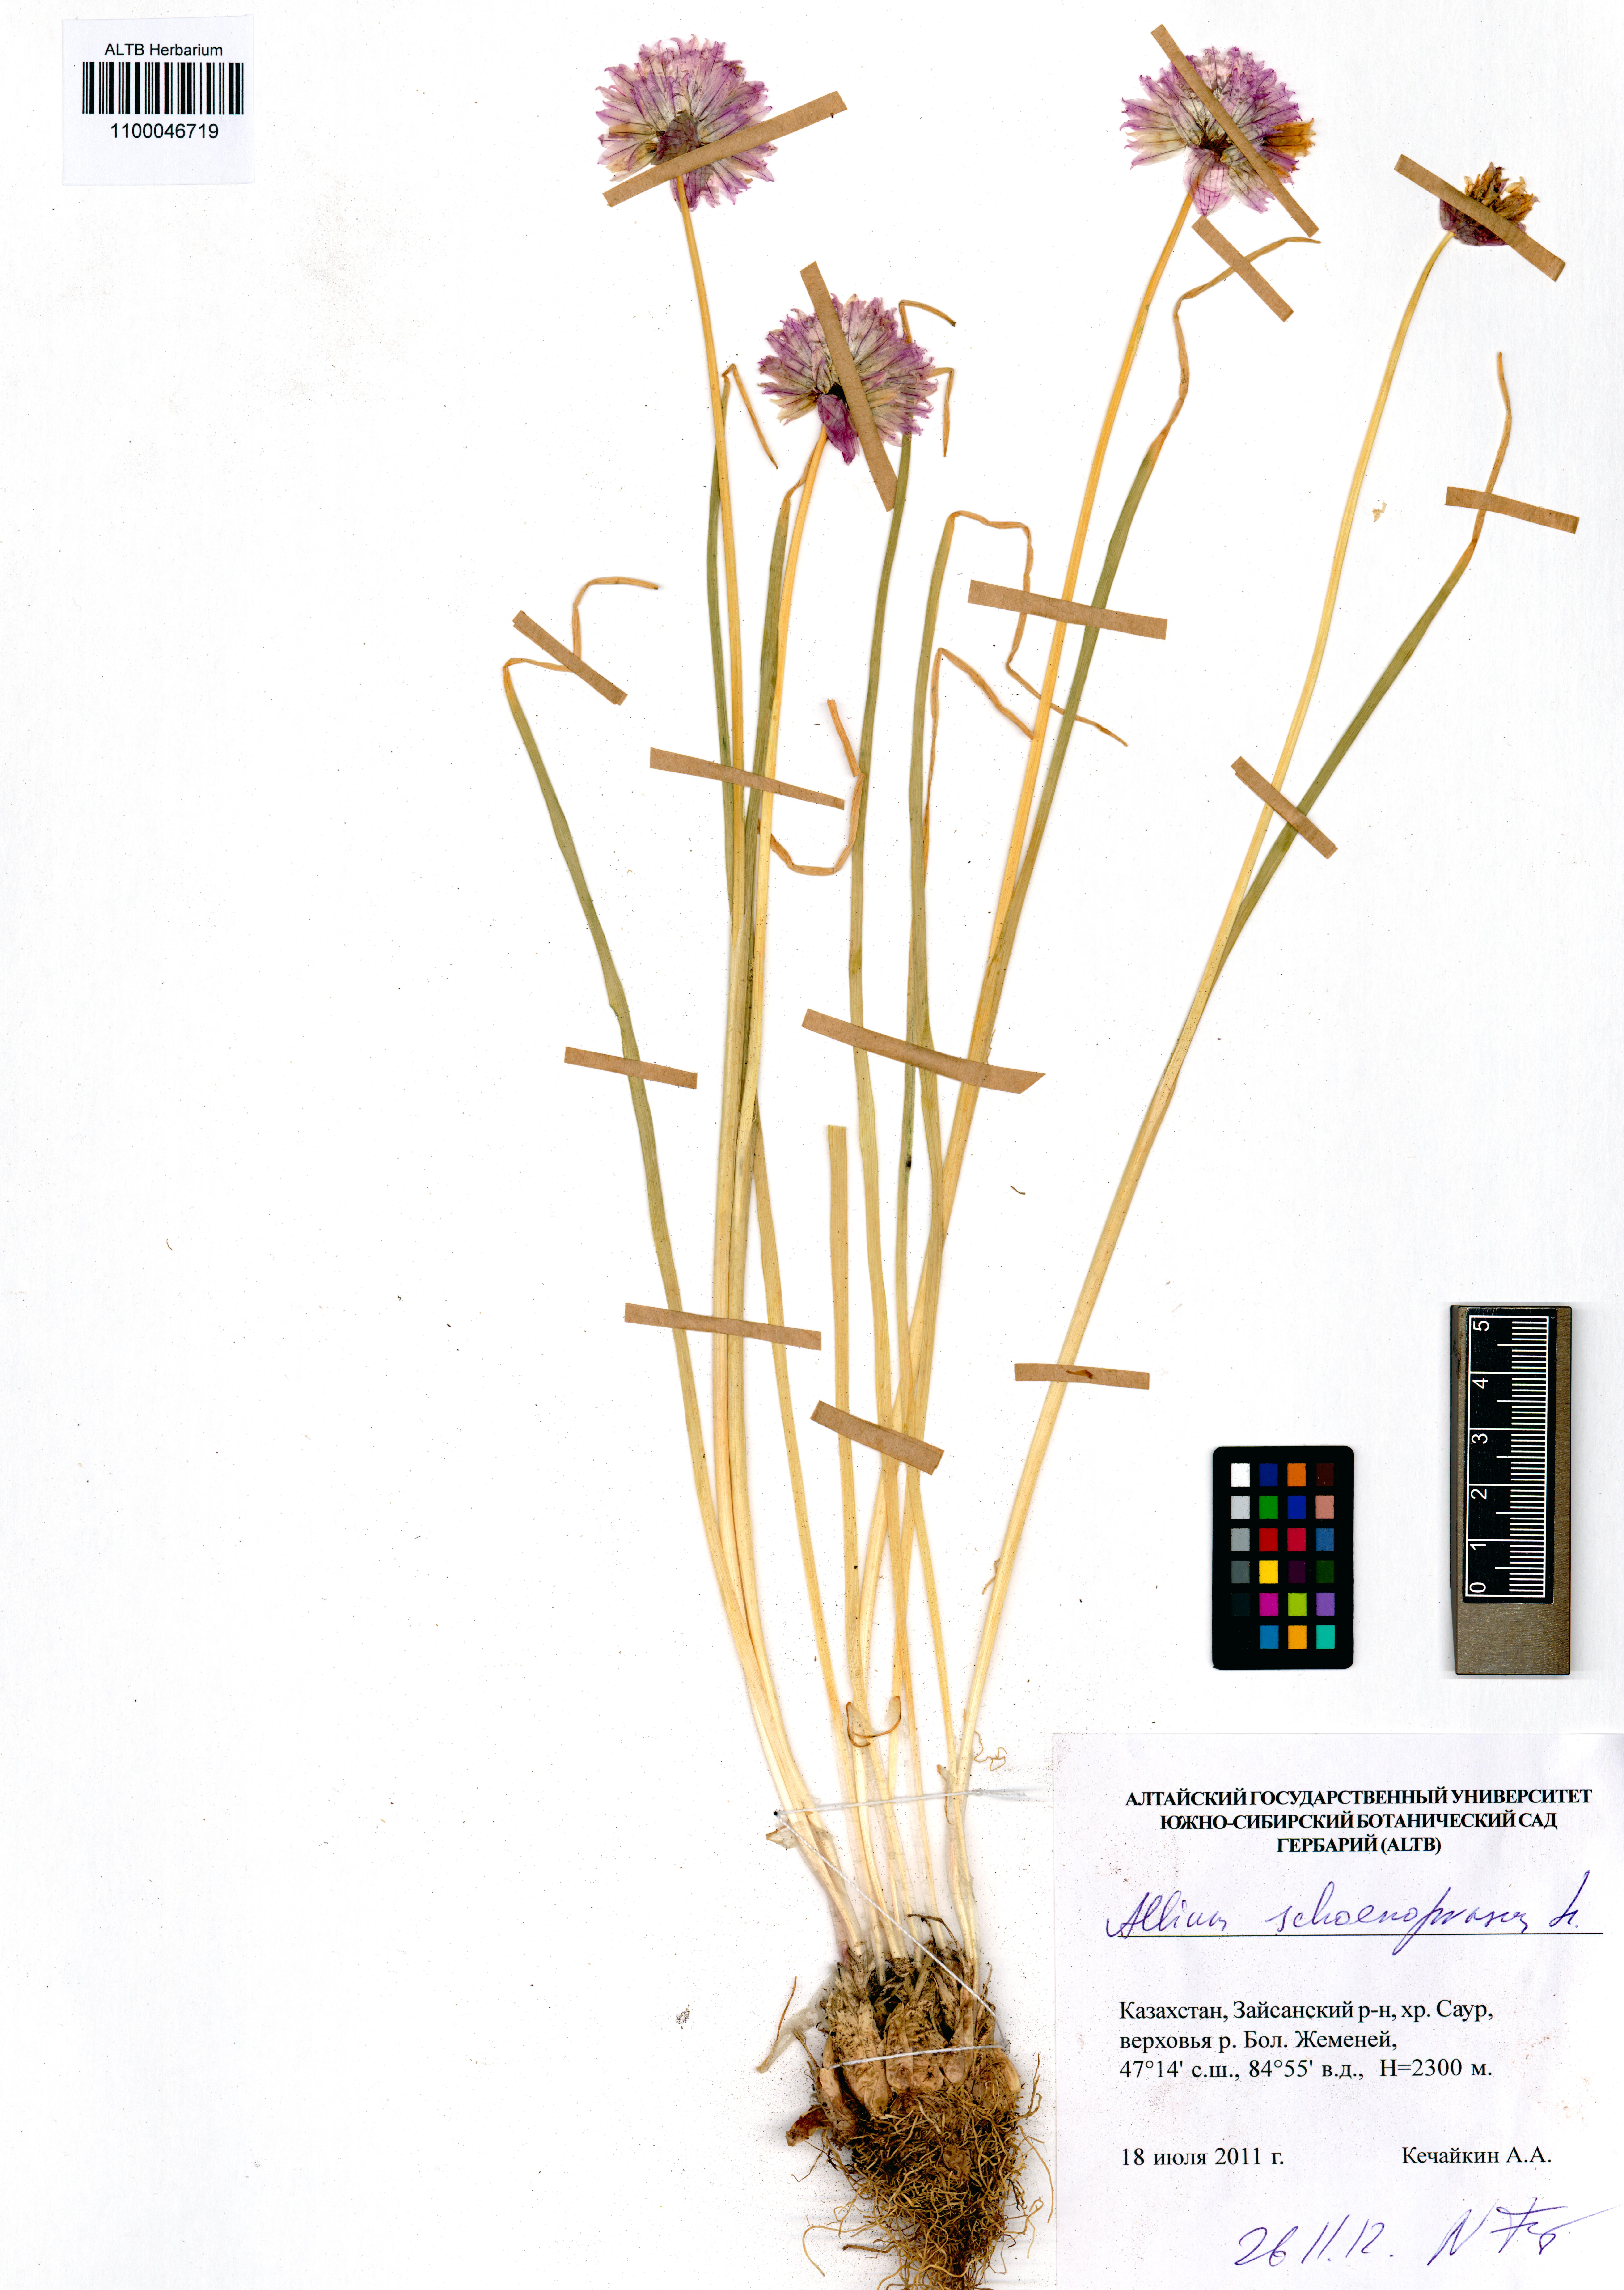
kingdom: Plantae
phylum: Tracheophyta
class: Liliopsida
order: Asparagales
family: Amaryllidaceae
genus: Allium
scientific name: Allium schoenoprasum
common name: Chives
